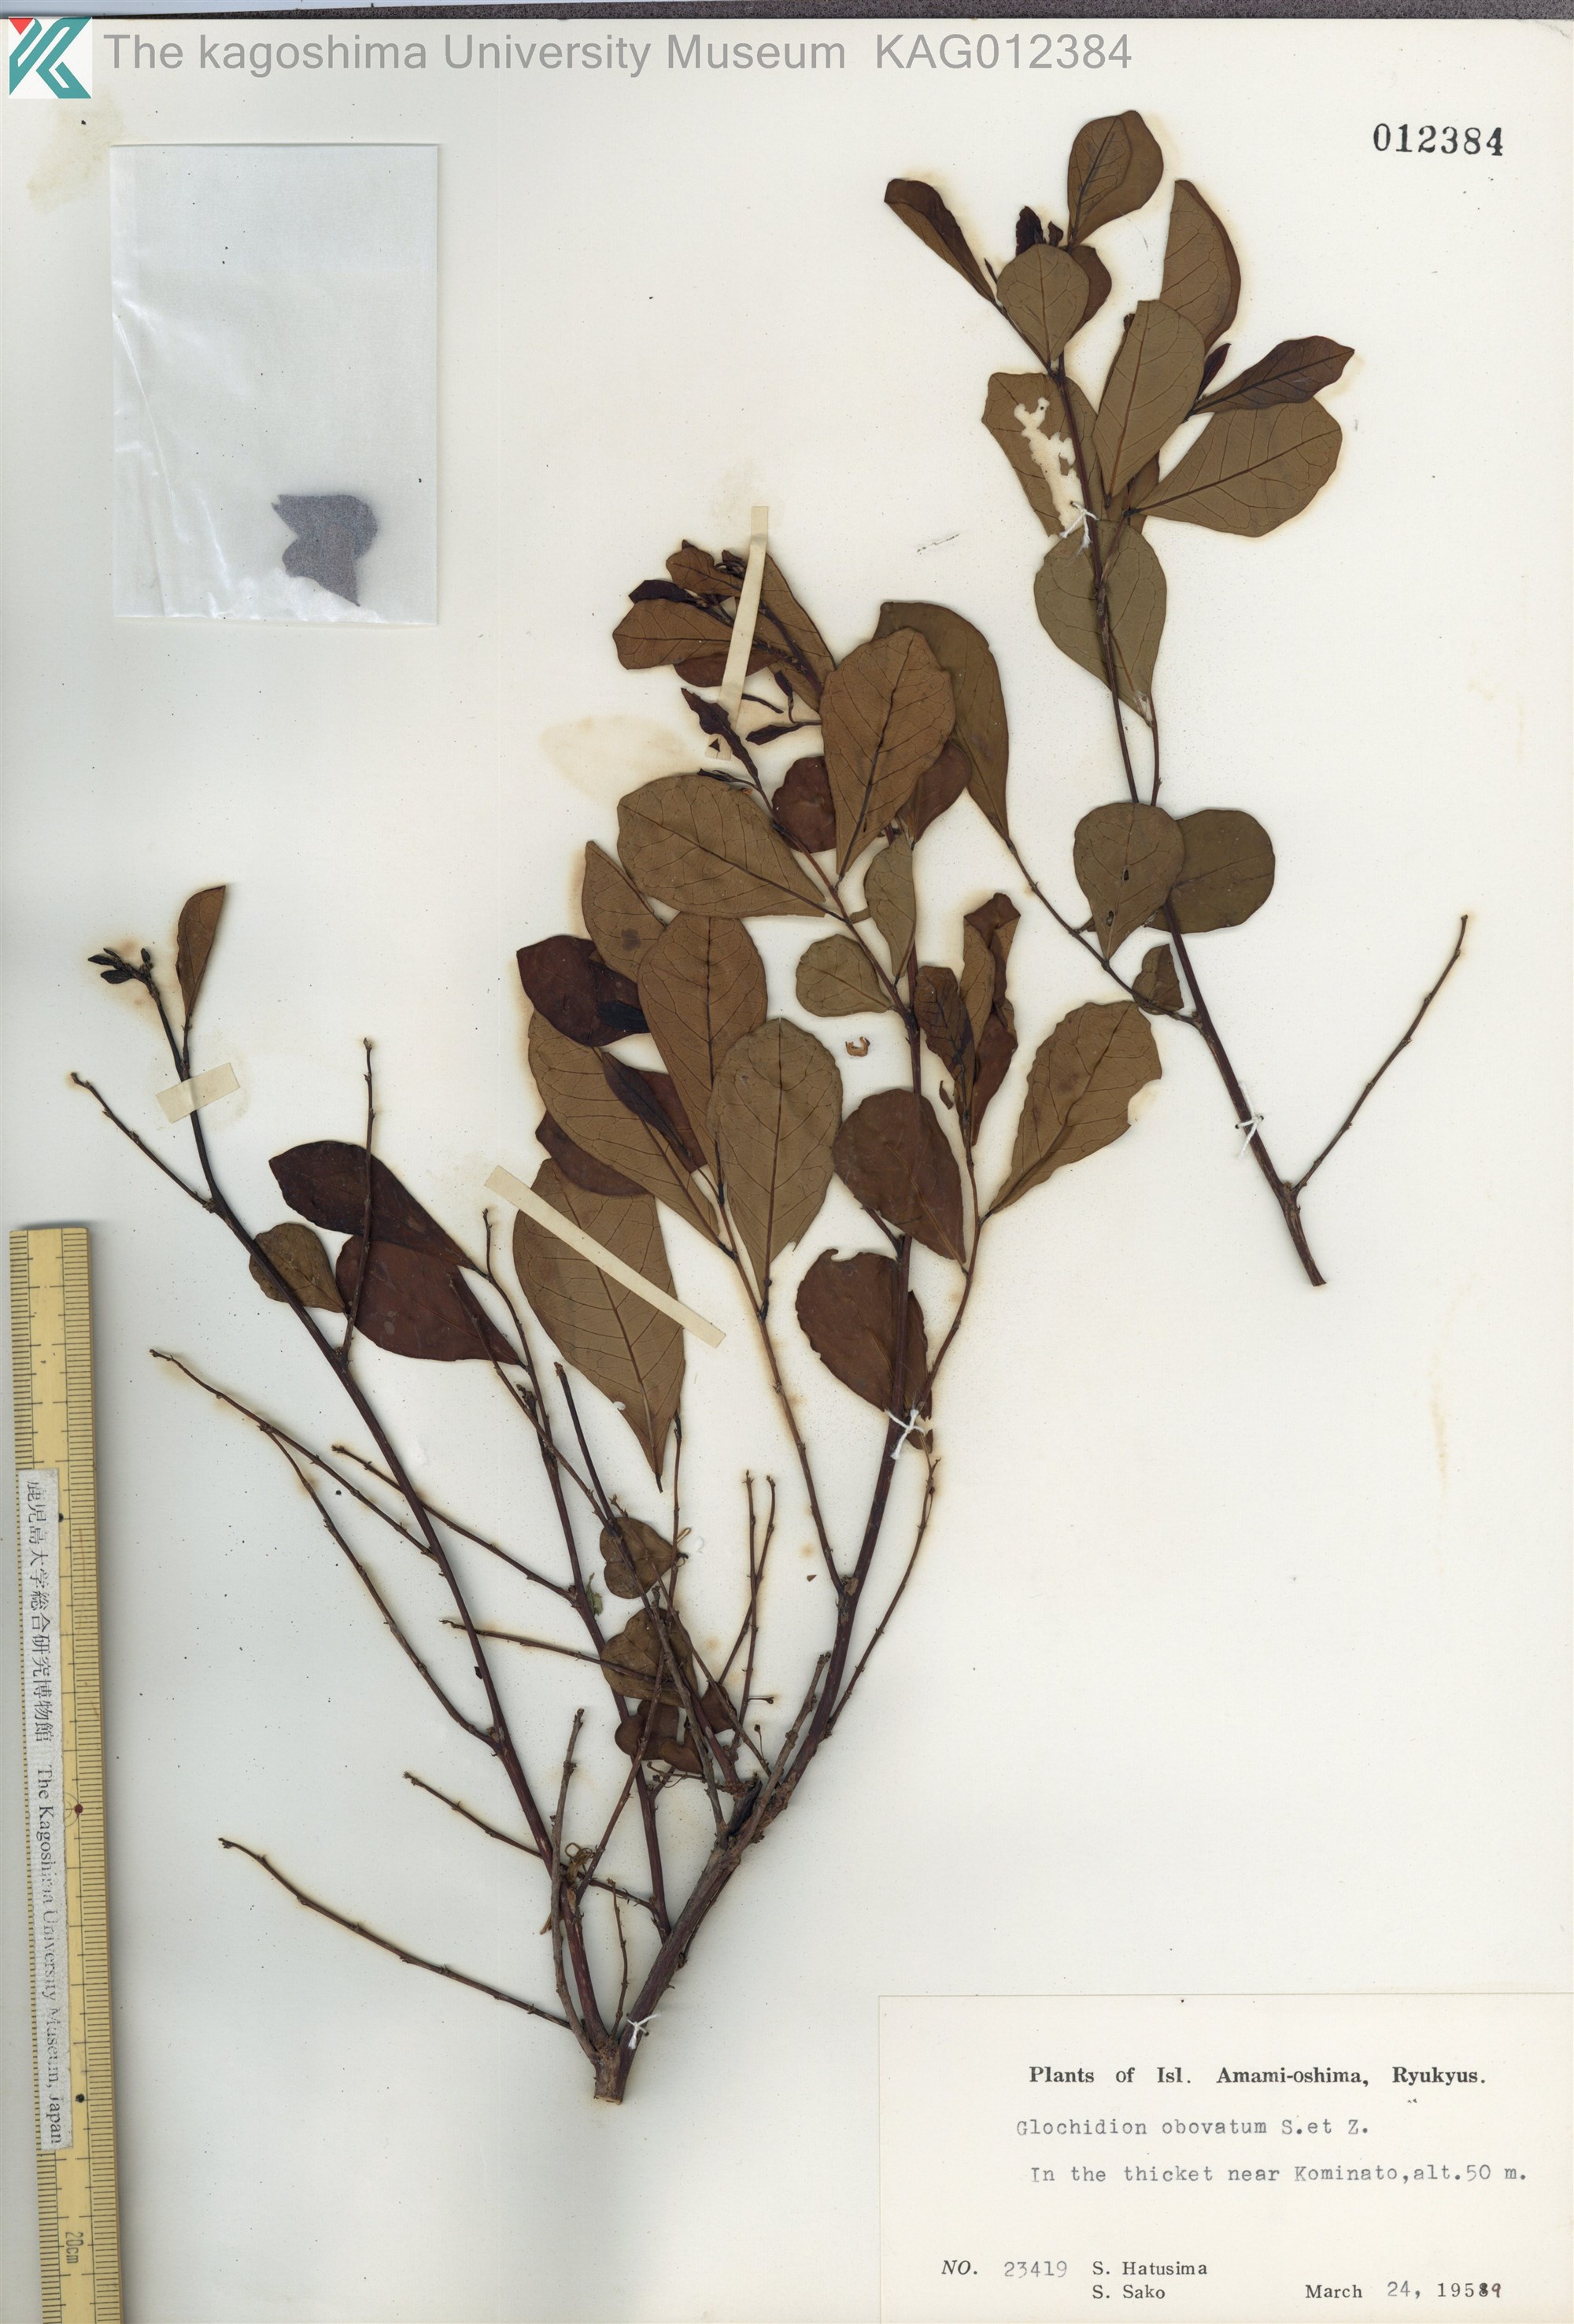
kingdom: Plantae
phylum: Tracheophyta
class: Magnoliopsida
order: Malpighiales
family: Phyllanthaceae
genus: Glochidion
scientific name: Glochidion obovatum
